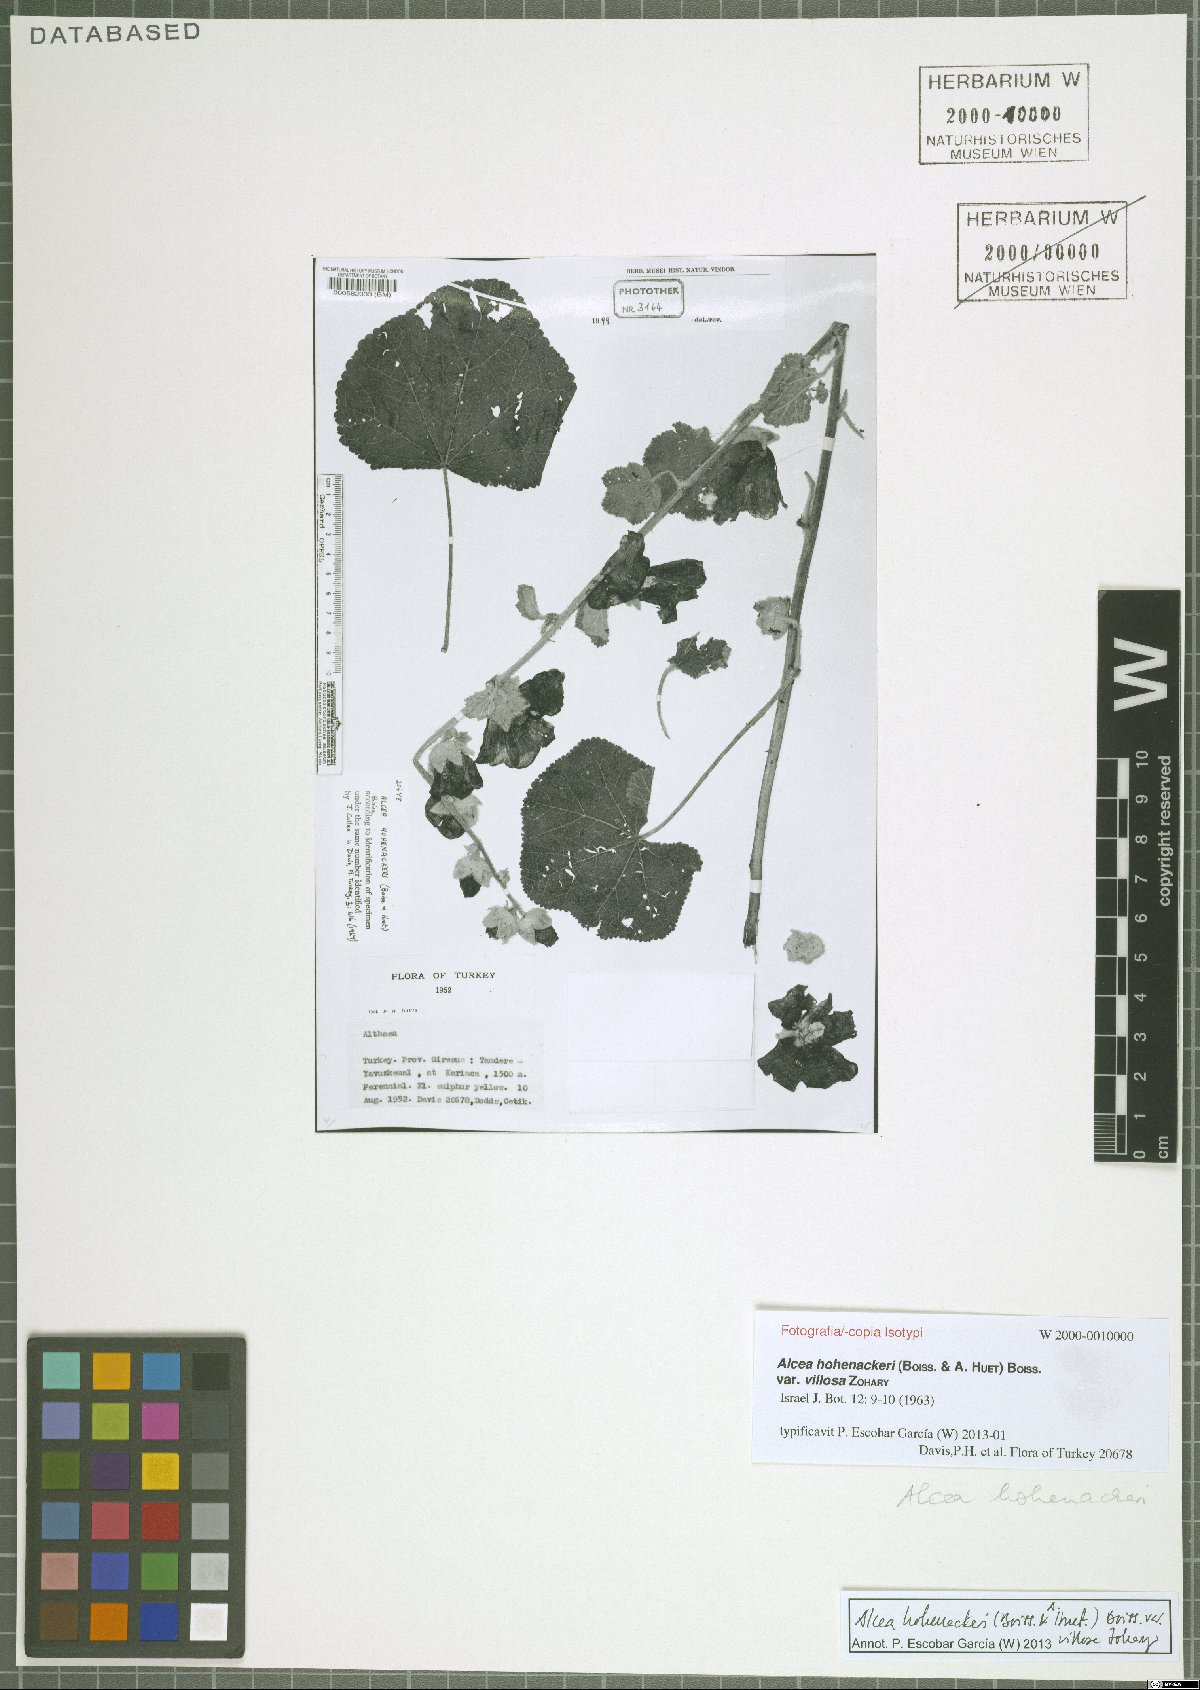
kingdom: Plantae
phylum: Tracheophyta
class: Magnoliopsida
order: Malvales
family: Malvaceae
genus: Alcea
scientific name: Alcea kurdica
